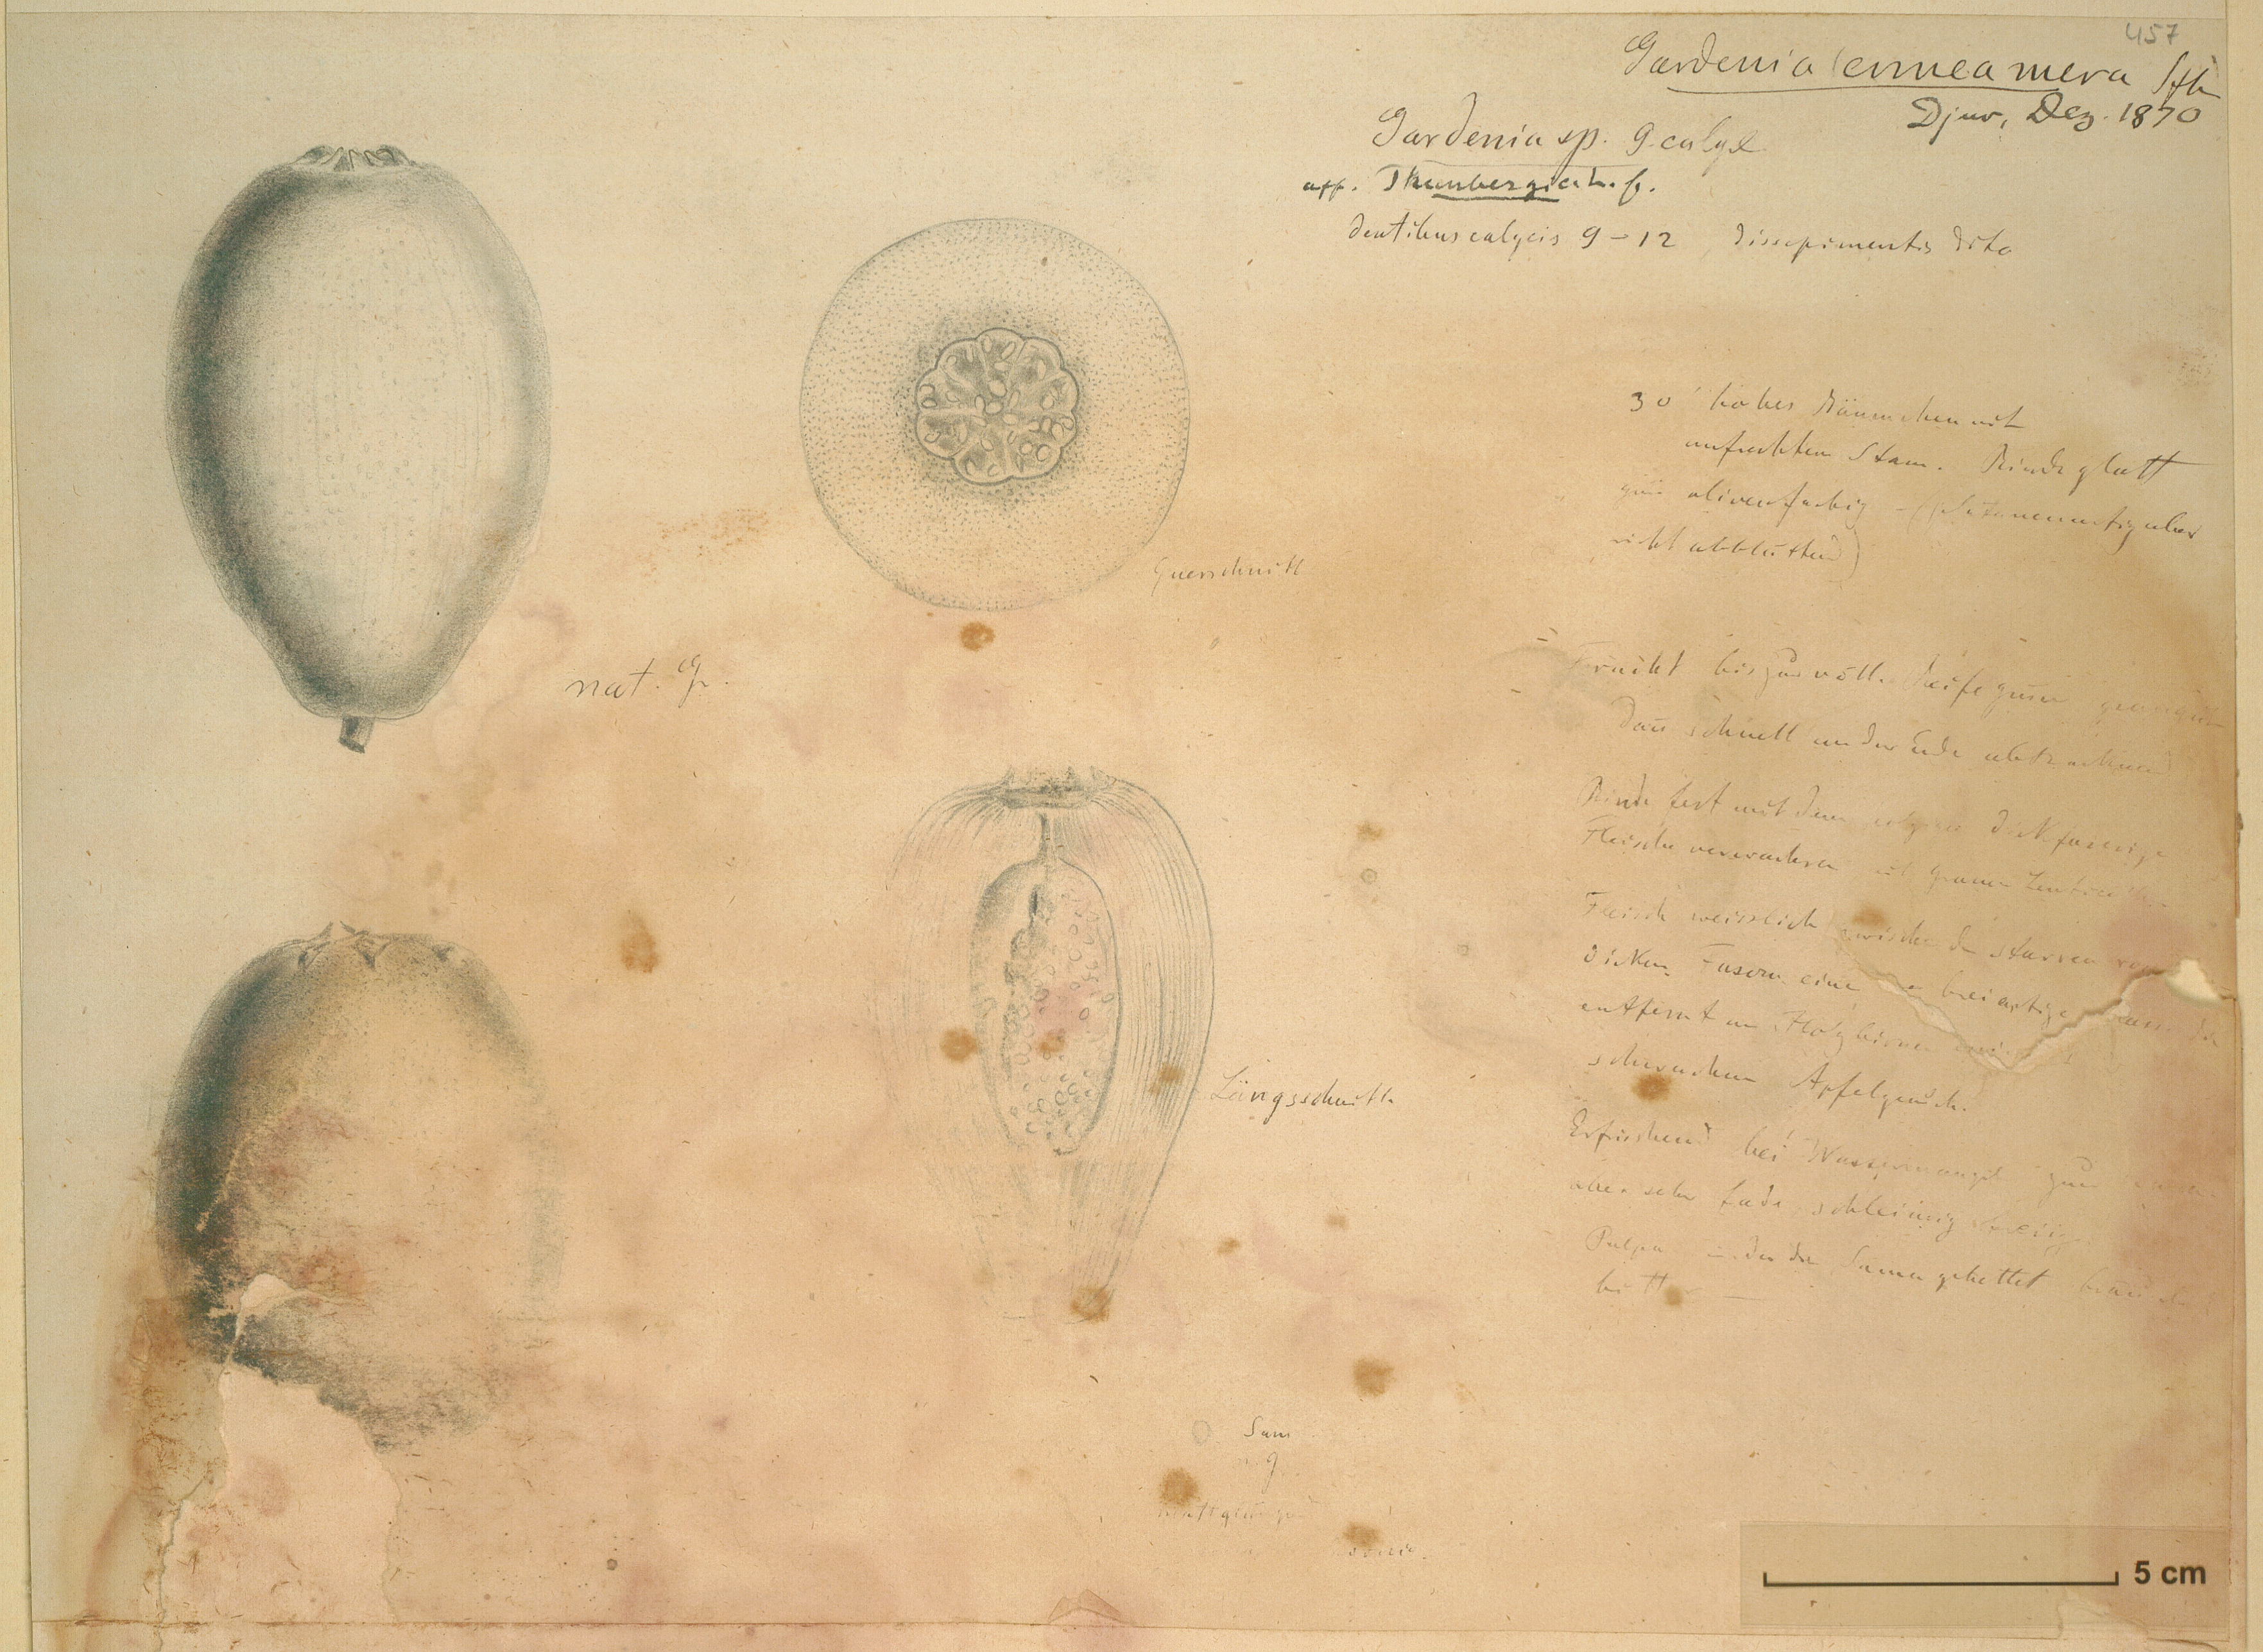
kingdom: Plantae
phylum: Tracheophyta
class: Magnoliopsida
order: Gentianales
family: Rubiaceae
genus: Gardenia
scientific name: Gardenia ternifolia
